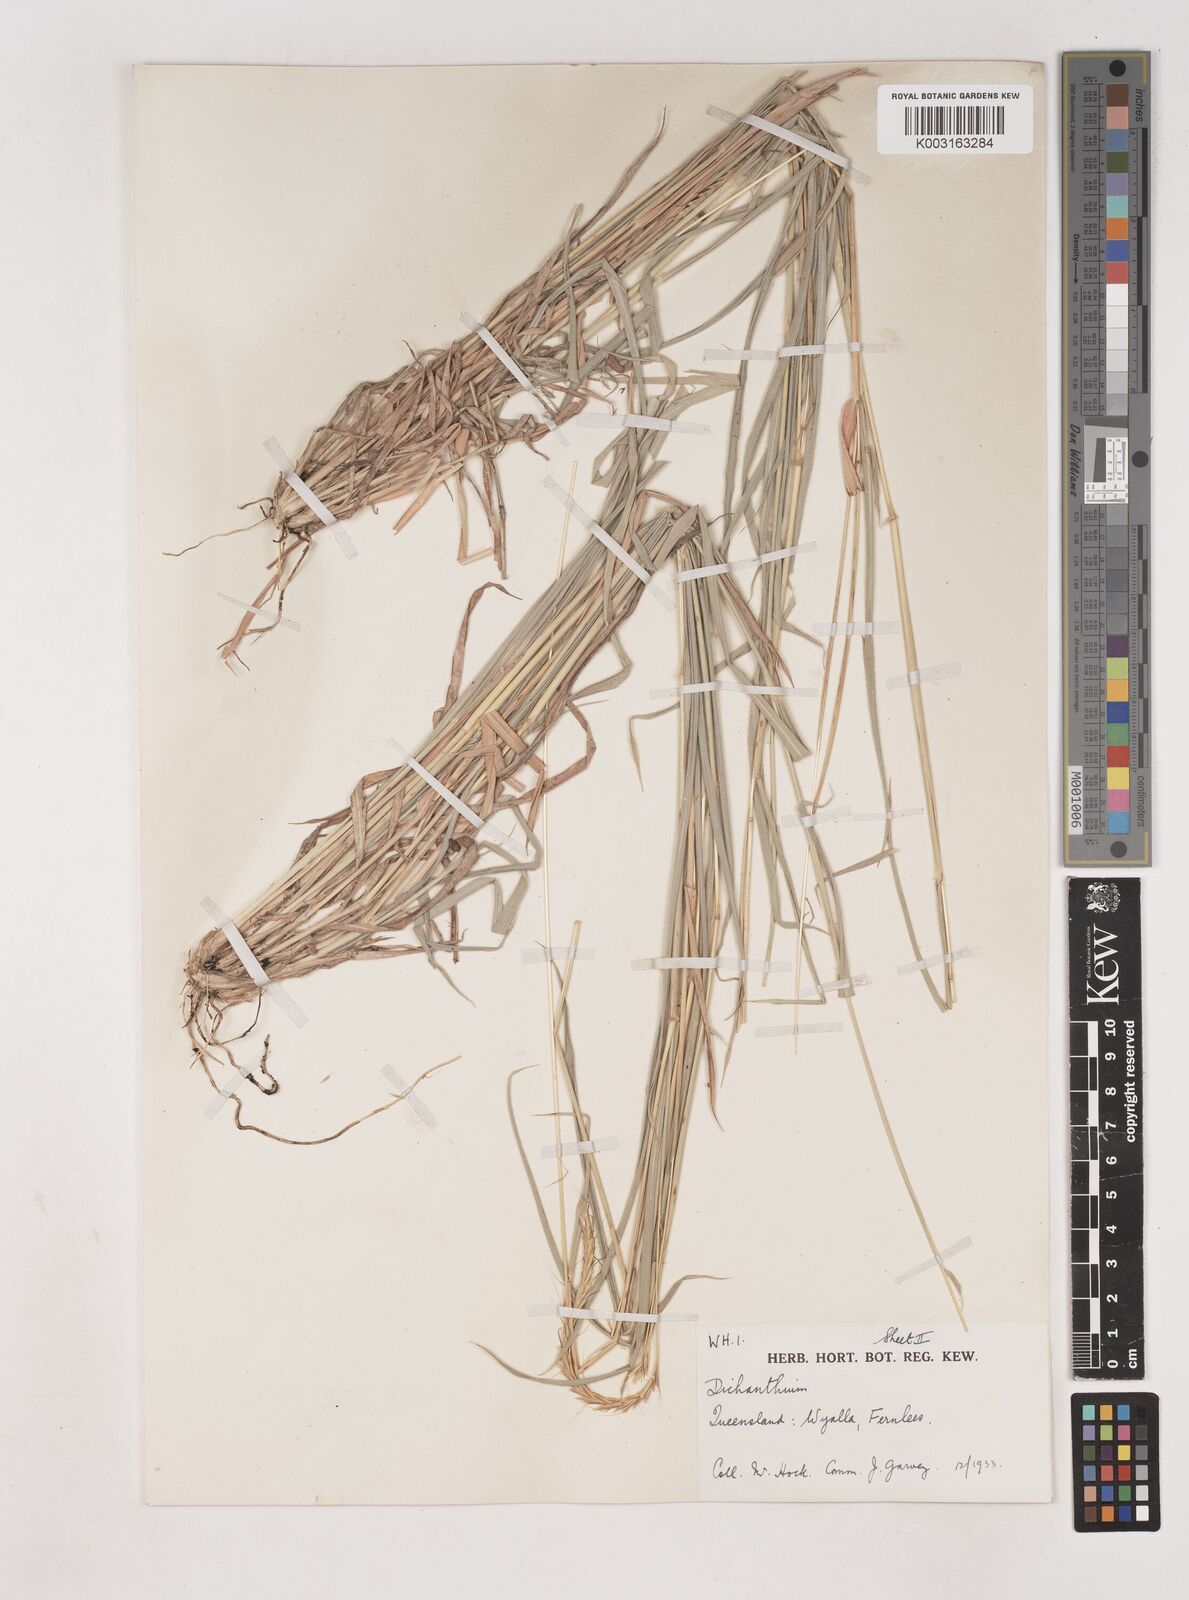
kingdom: Plantae
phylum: Tracheophyta
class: Liliopsida
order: Poales
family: Poaceae
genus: Dichanthium
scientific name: Dichanthium queenslandicum
